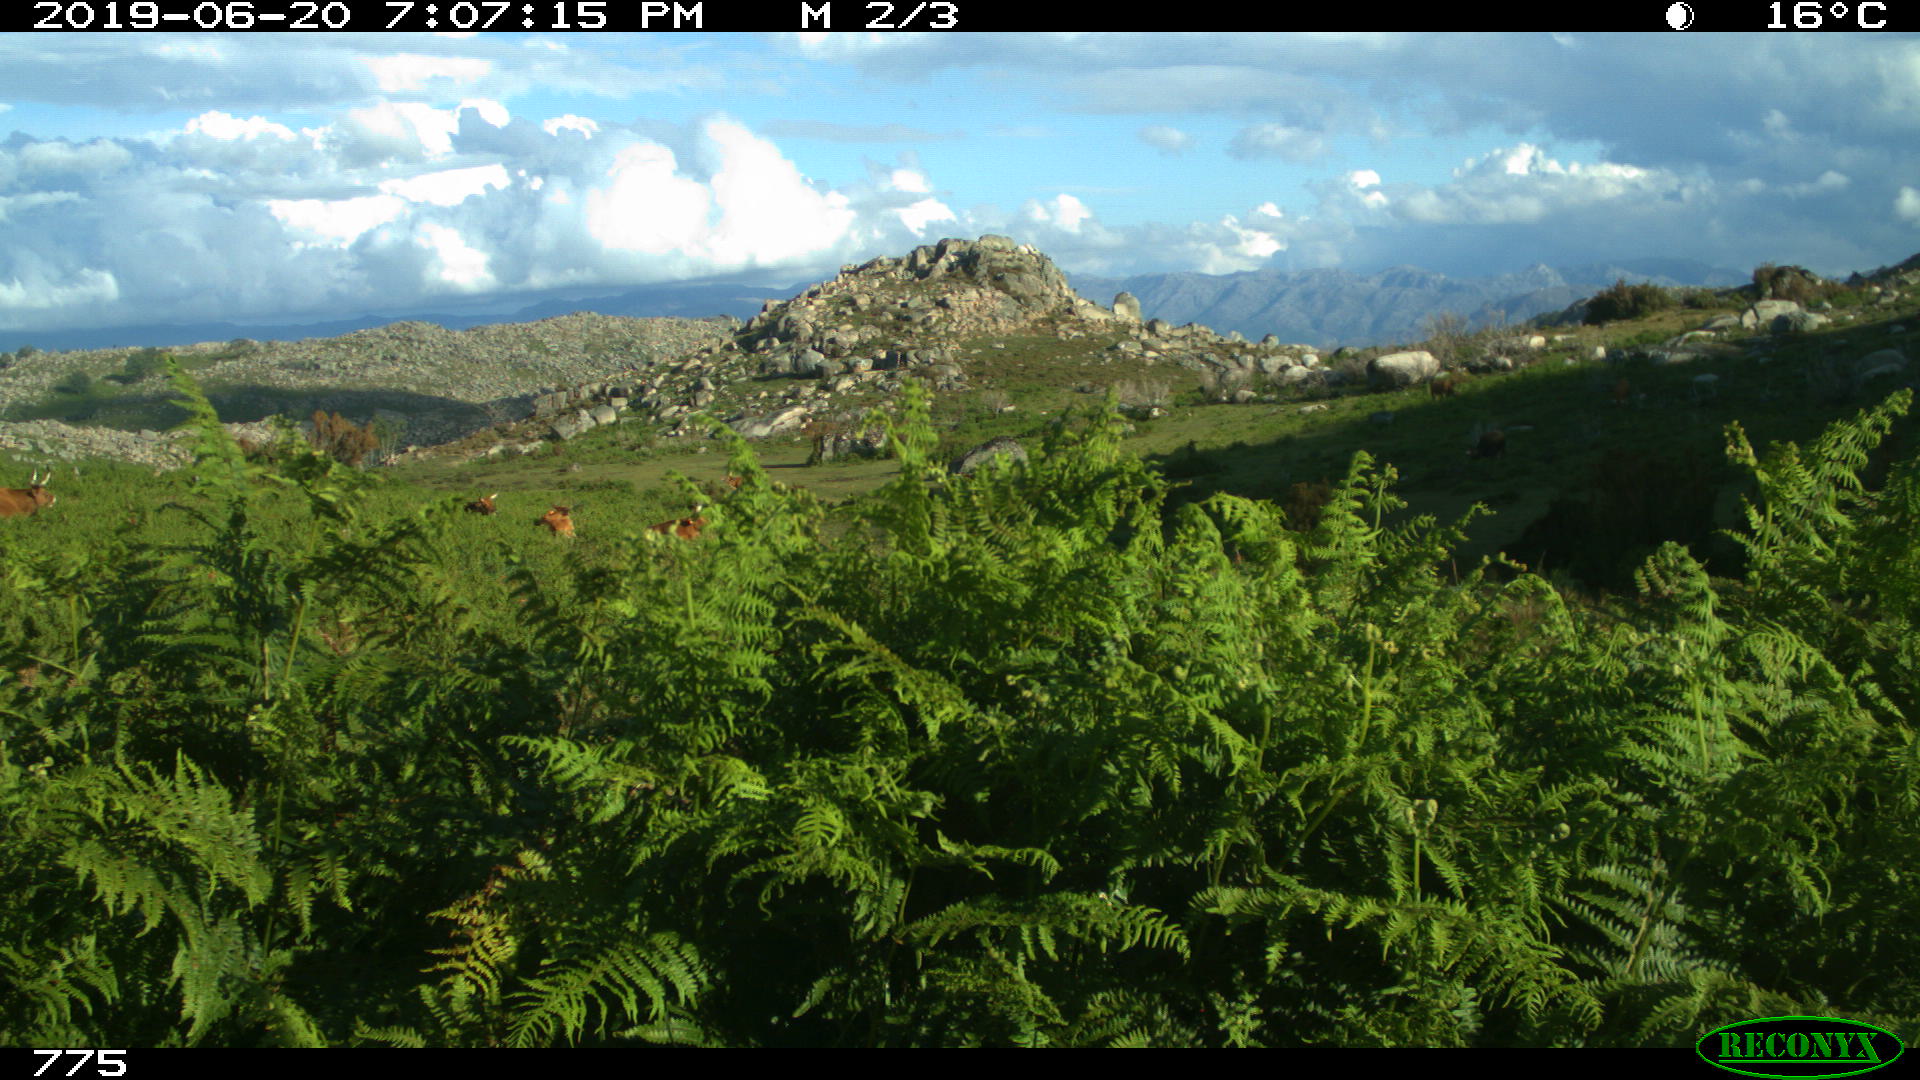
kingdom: Animalia
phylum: Chordata
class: Mammalia
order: Artiodactyla
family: Bovidae
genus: Bos
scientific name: Bos taurus
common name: Domesticated cattle
